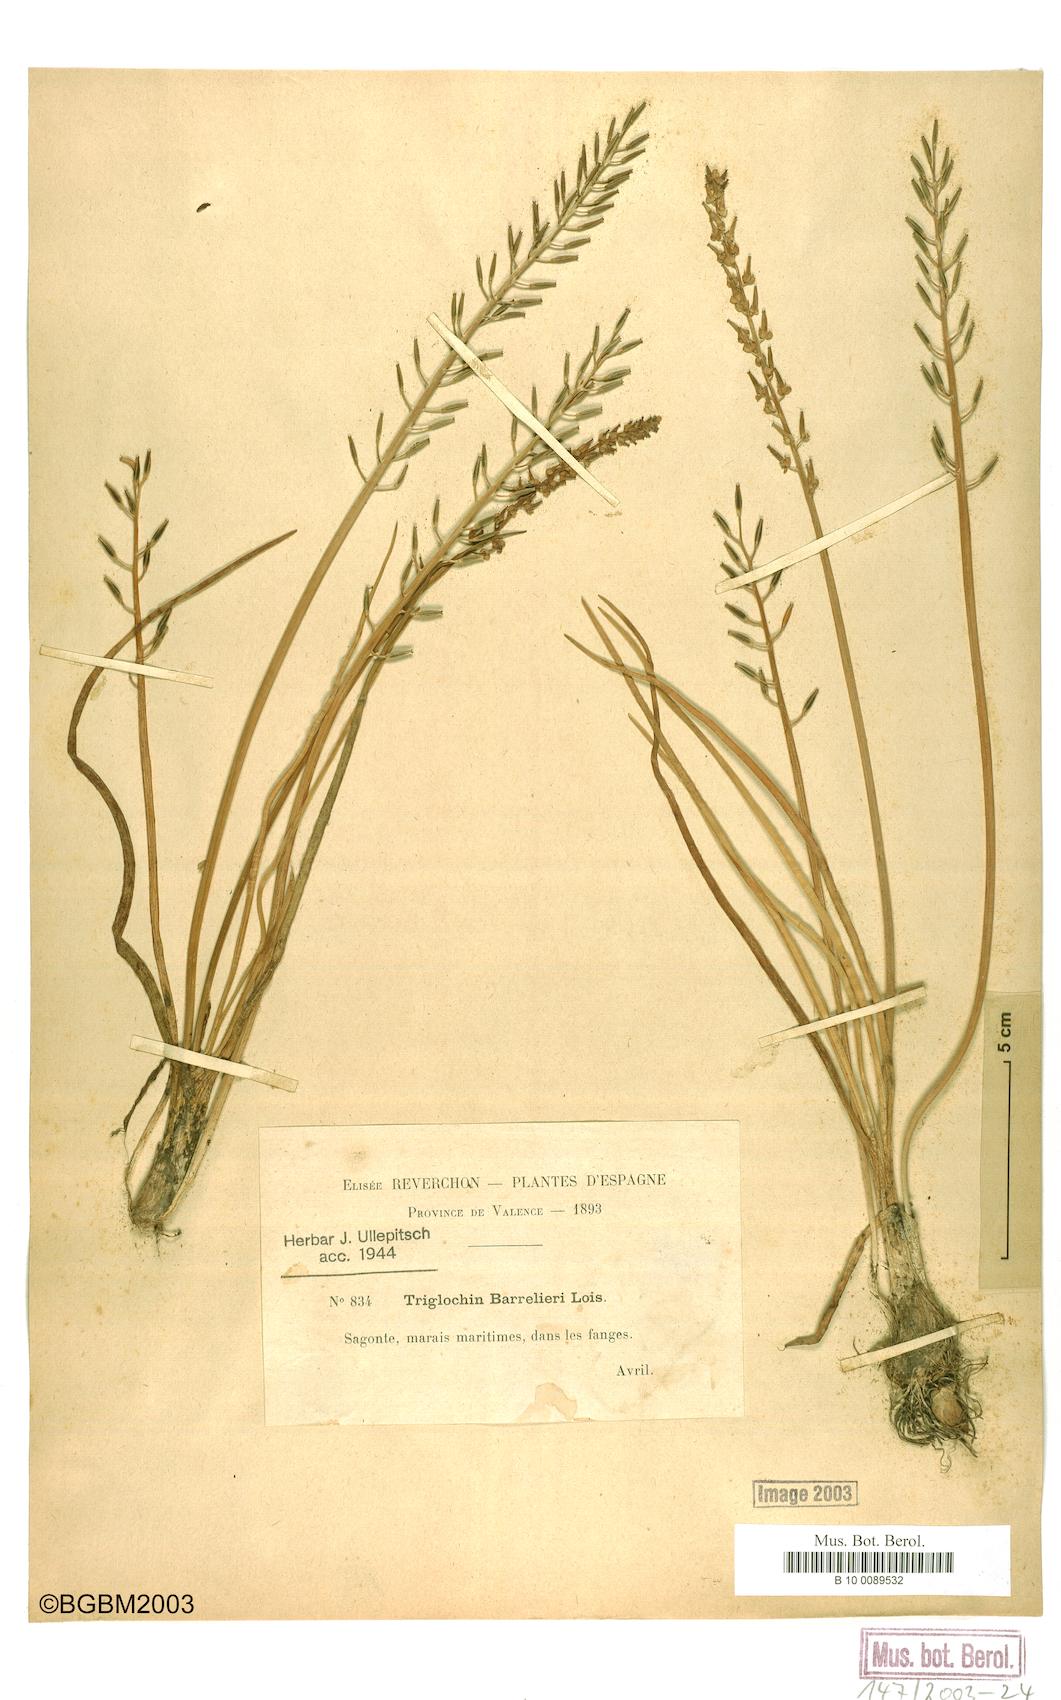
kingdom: Plantae
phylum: Tracheophyta
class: Liliopsida
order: Alismatales
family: Juncaginaceae
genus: Triglochin
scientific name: Triglochin bulbosa
